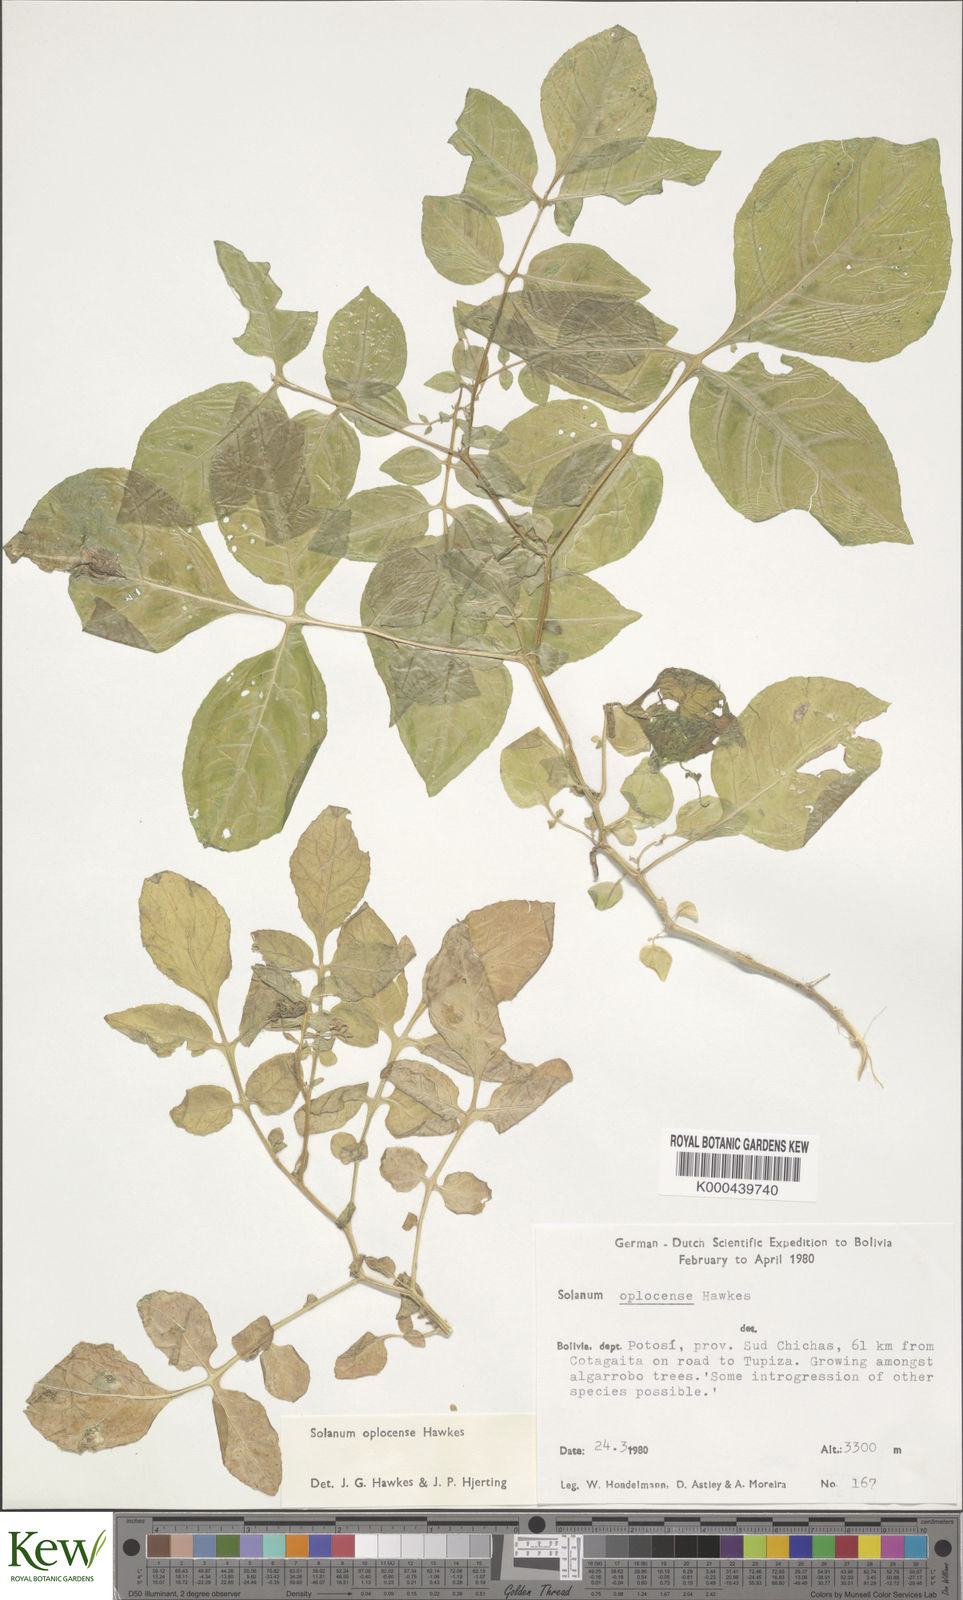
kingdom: Plantae
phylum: Tracheophyta
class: Magnoliopsida
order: Solanales
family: Solanaceae
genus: Solanum
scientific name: Solanum brevicaule
